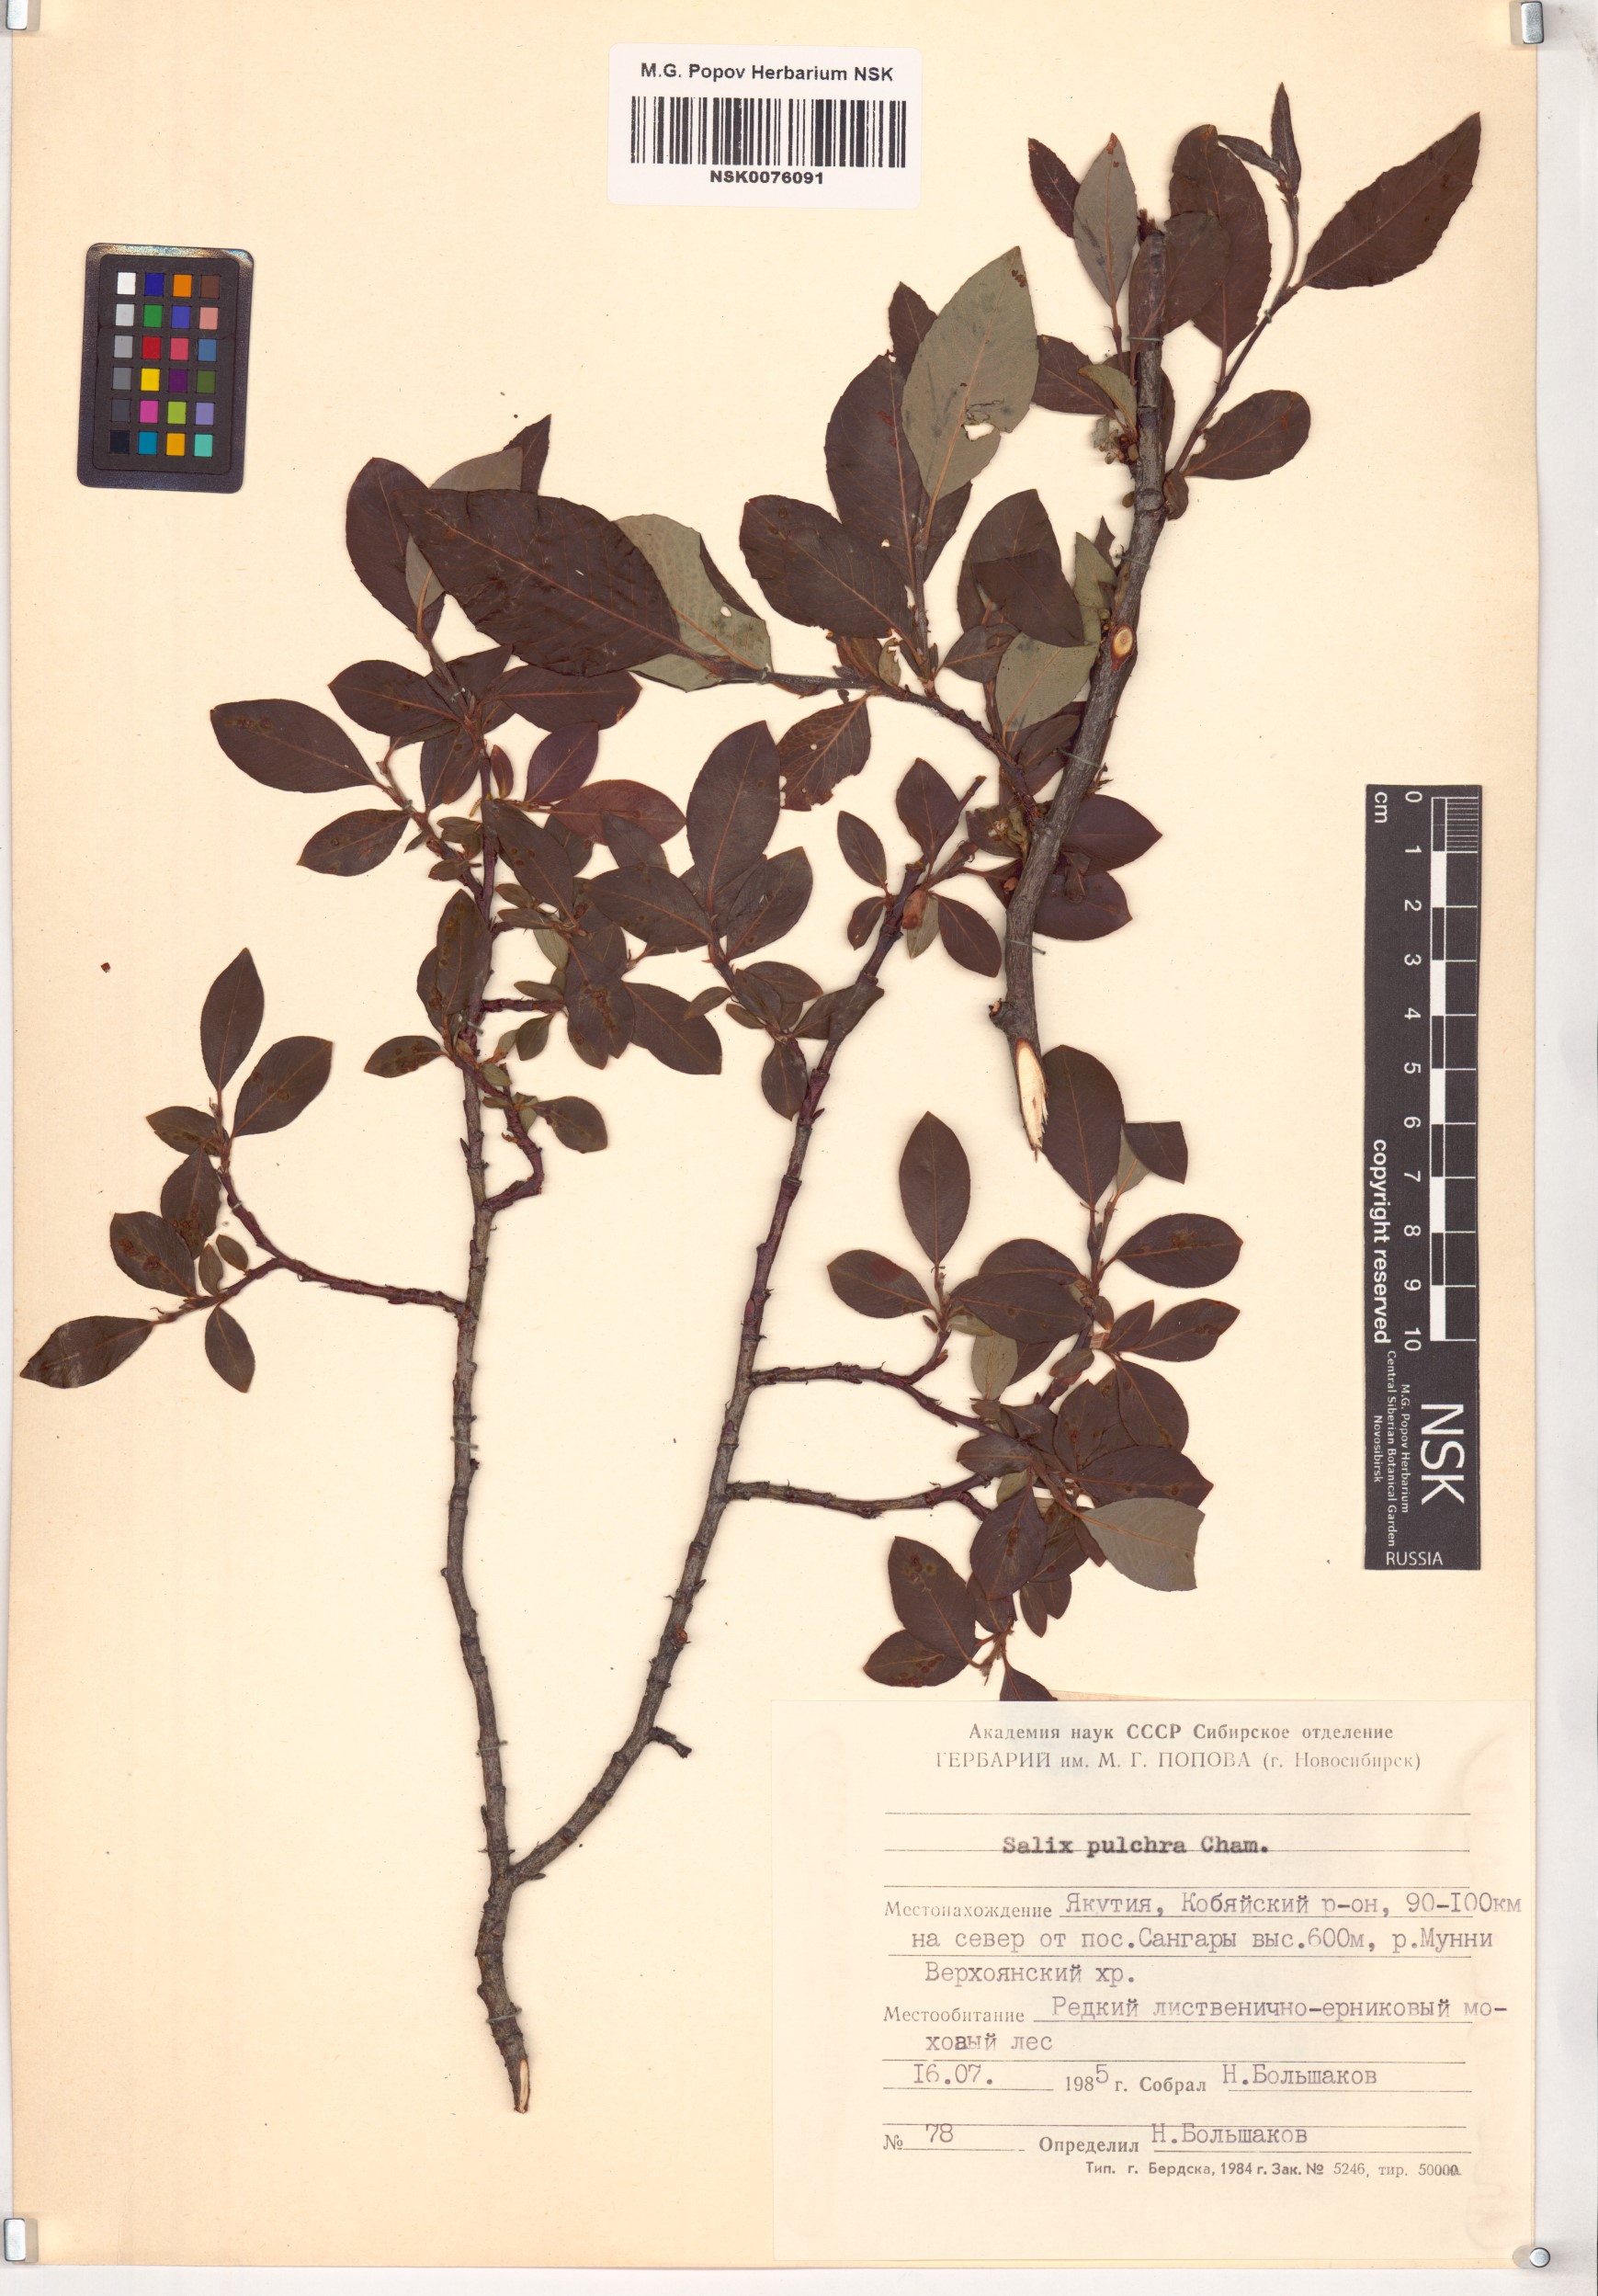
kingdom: Plantae
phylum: Tracheophyta
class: Magnoliopsida
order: Malpighiales
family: Salicaceae
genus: Salix
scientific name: Salix pulchra
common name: Diamond-leaved willow
